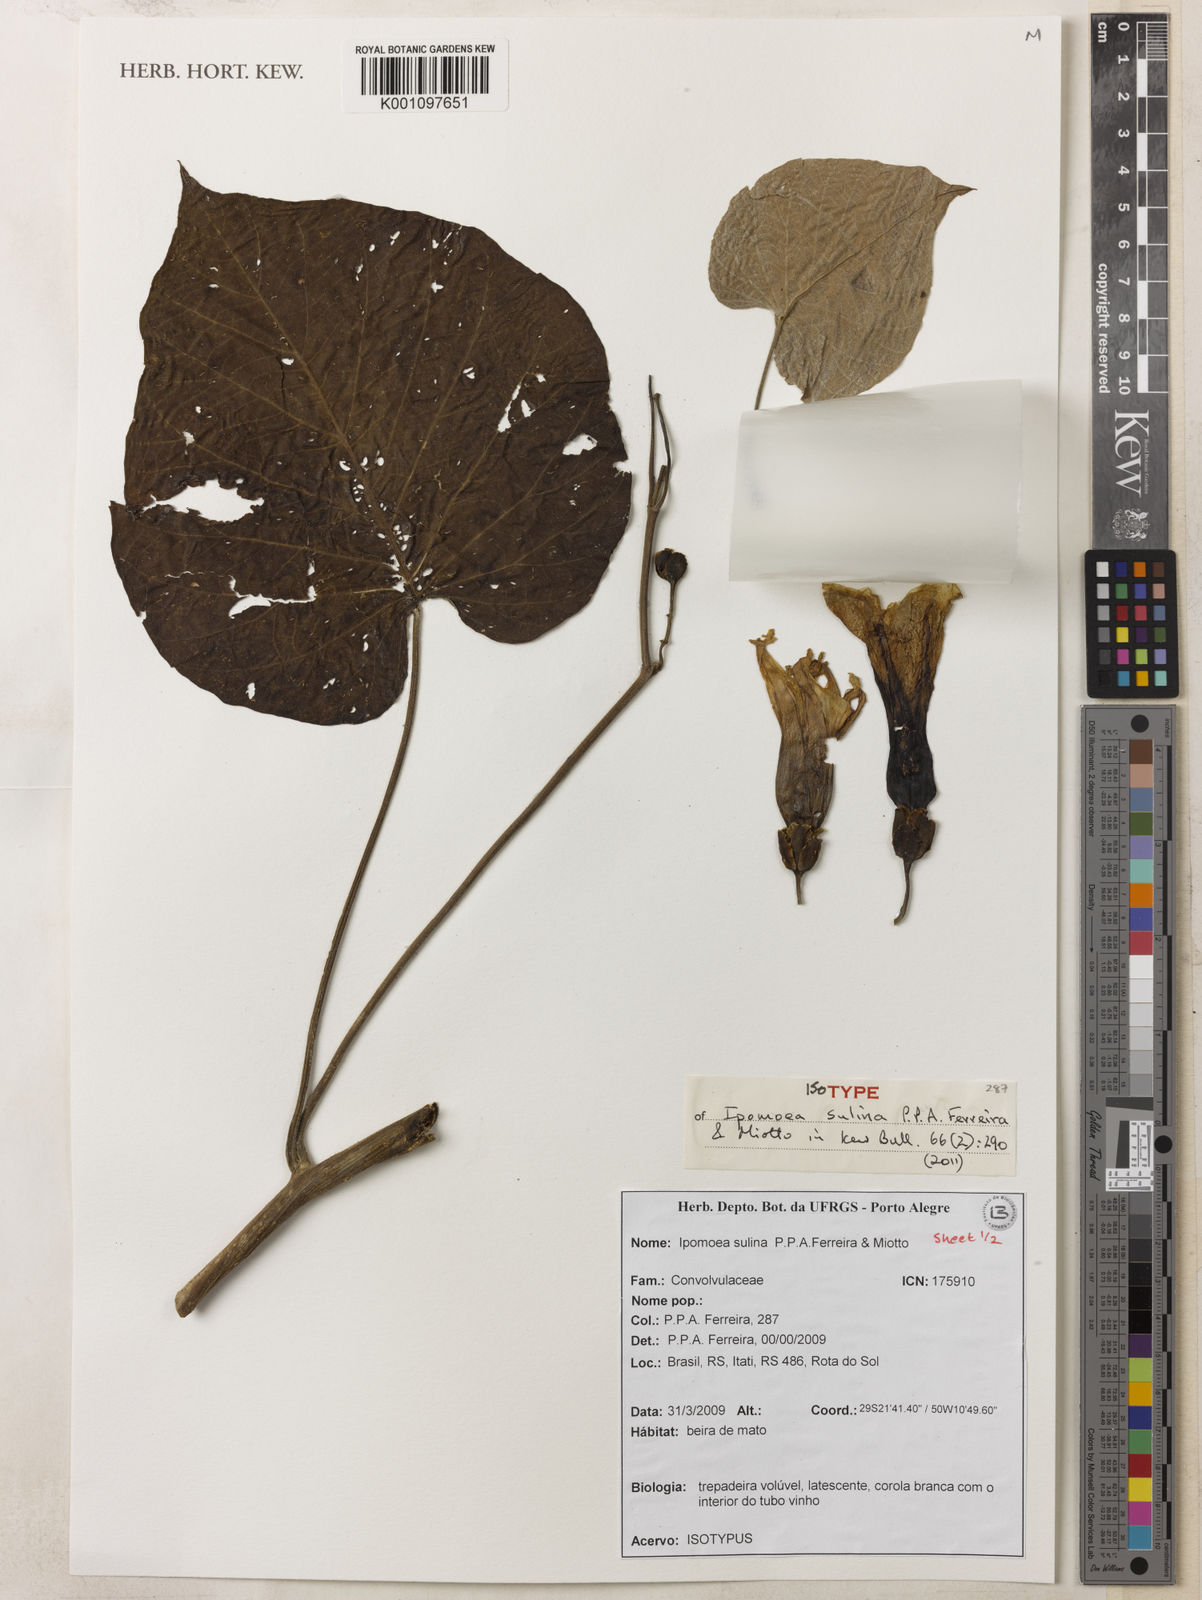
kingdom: Plantae
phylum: Tracheophyta
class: Magnoliopsida
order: Solanales
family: Convolvulaceae
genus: Ipomoea
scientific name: Ipomoea sulina
